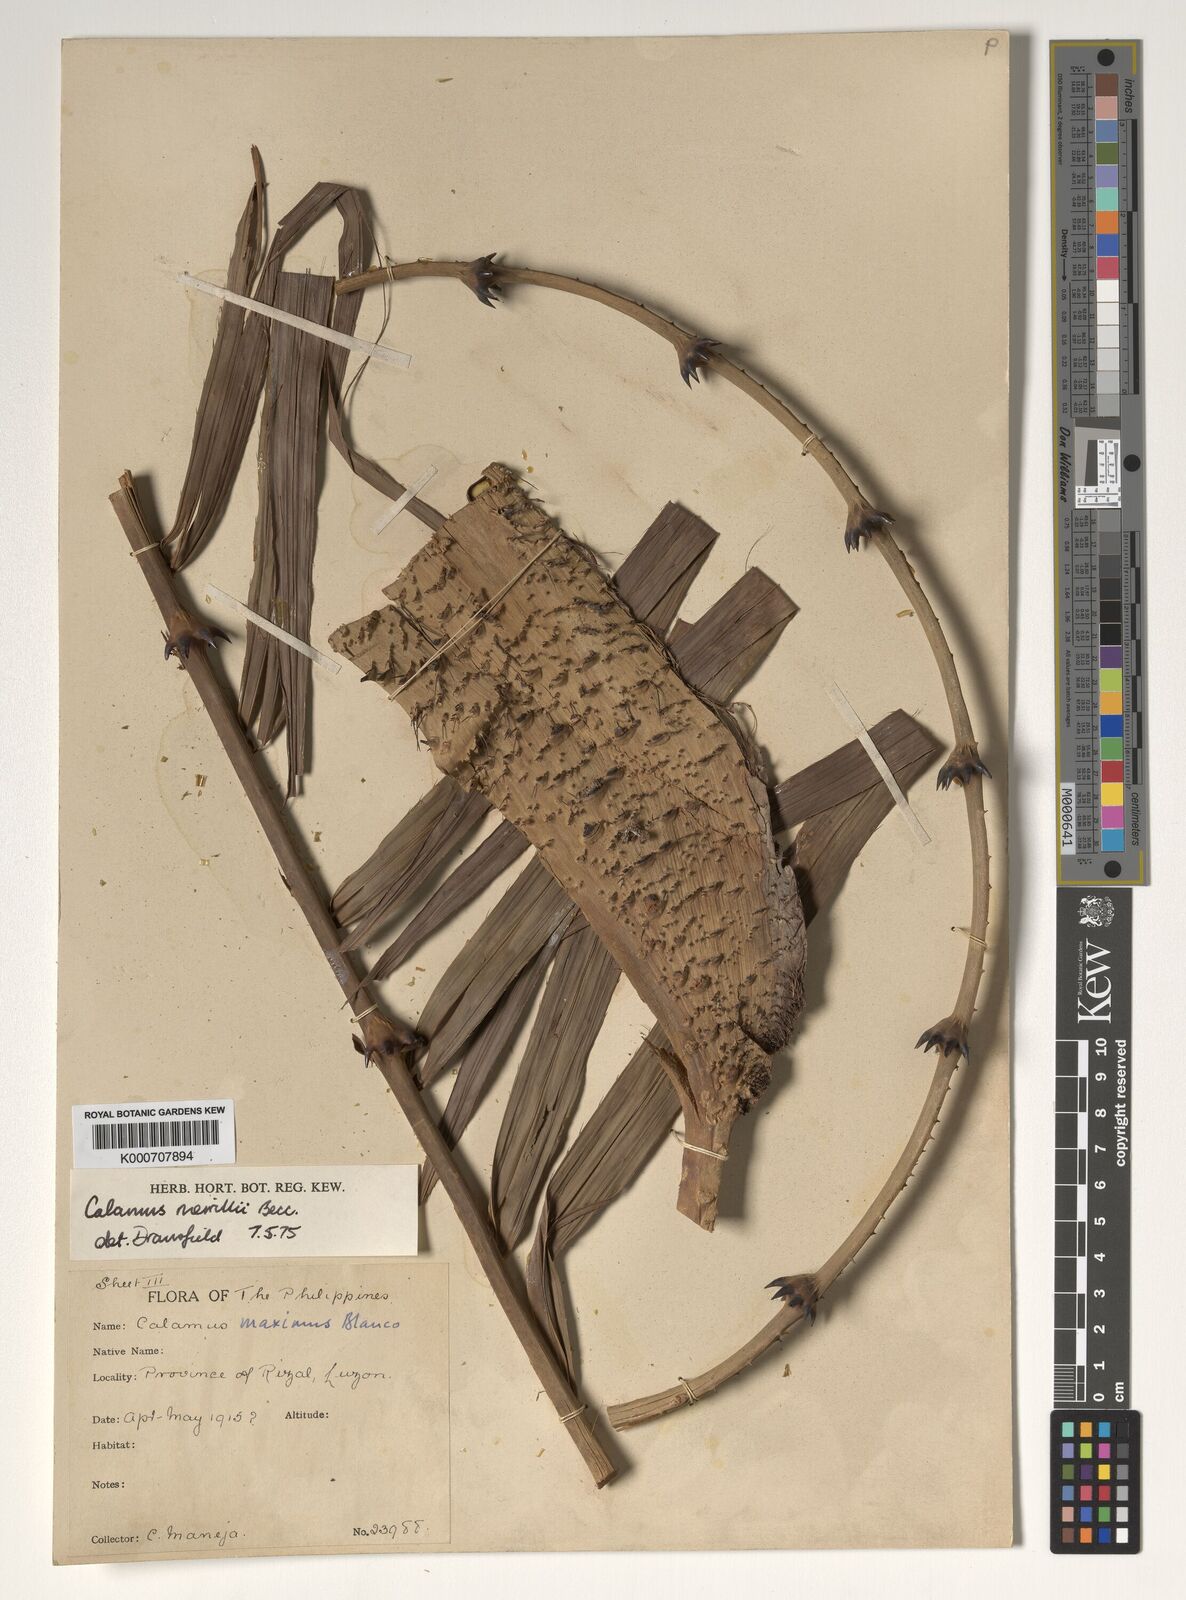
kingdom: Plantae
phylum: Tracheophyta
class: Liliopsida
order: Arecales
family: Arecaceae
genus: Calamus
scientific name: Calamus zollingeri
